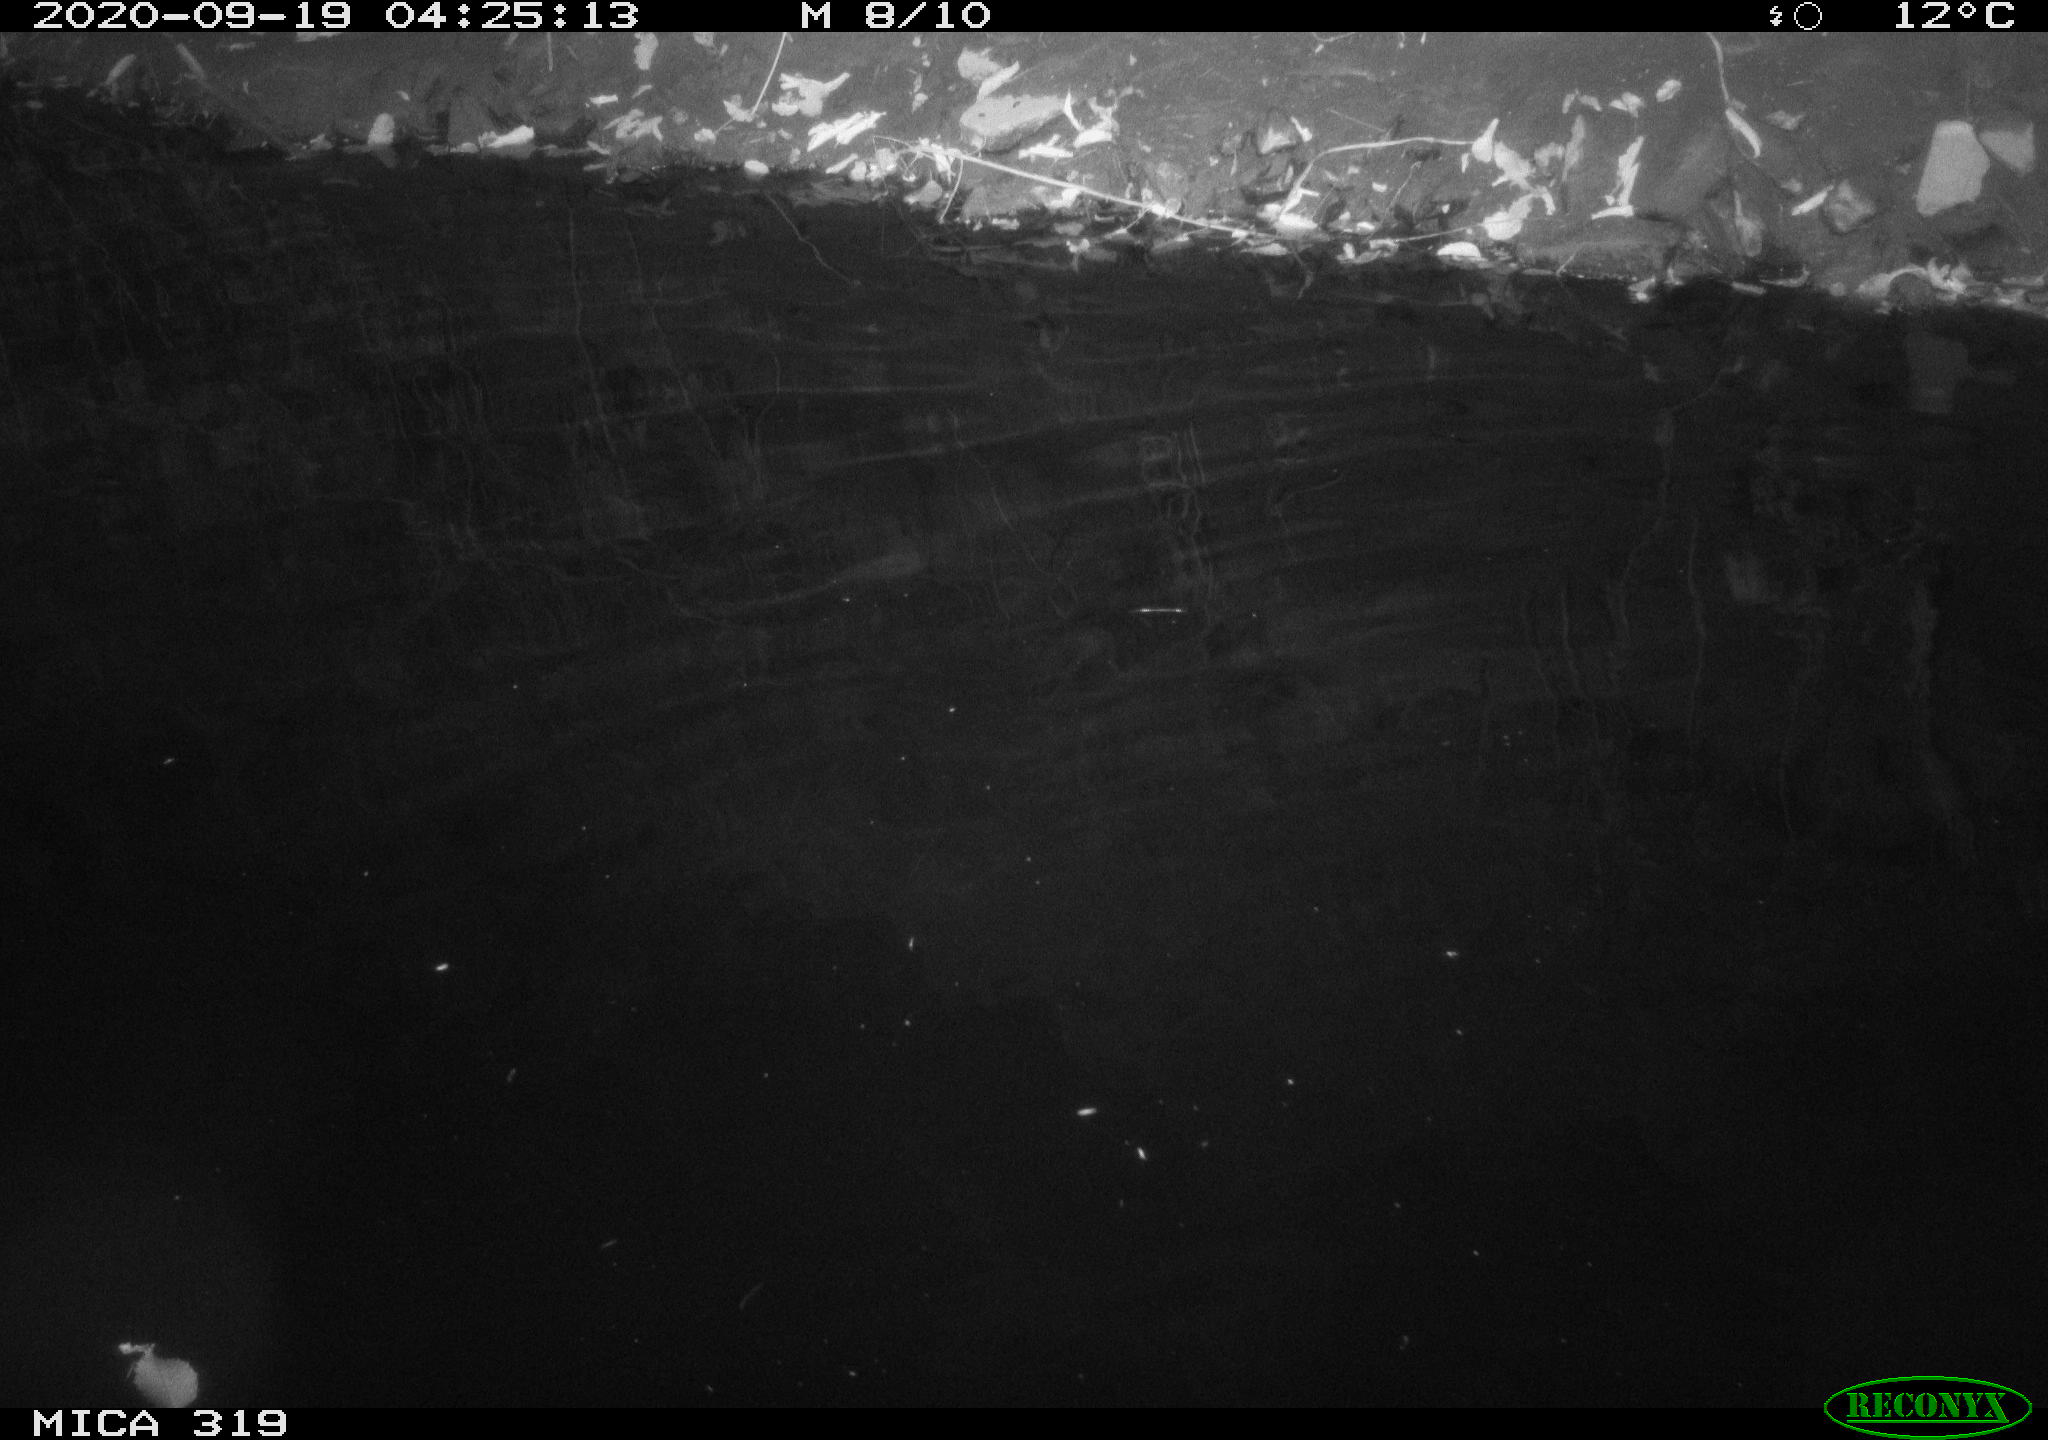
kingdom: Animalia
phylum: Chordata
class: Aves
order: Anseriformes
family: Anatidae
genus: Anas
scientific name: Anas platyrhynchos
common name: Mallard
